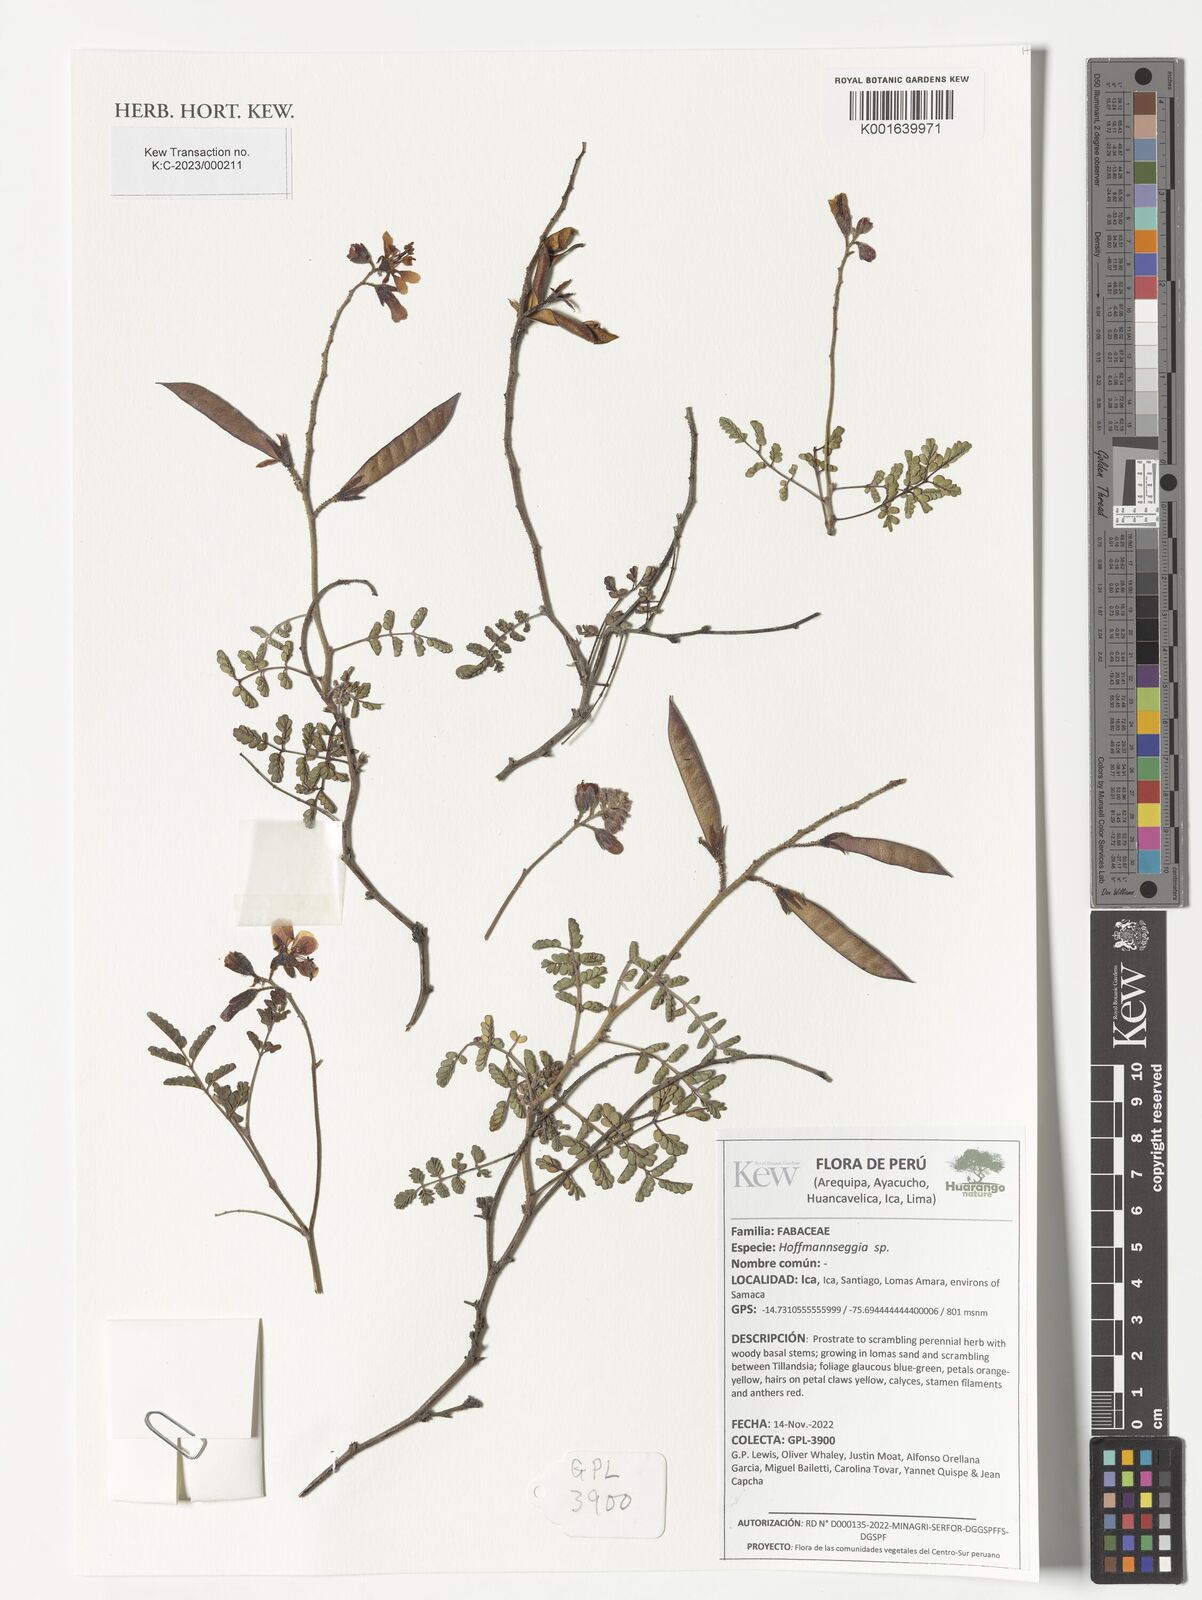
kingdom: Plantae
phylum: Tracheophyta
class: Magnoliopsida
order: Fabales
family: Fabaceae
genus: Hoffmannseggia
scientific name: Hoffmannseggia
